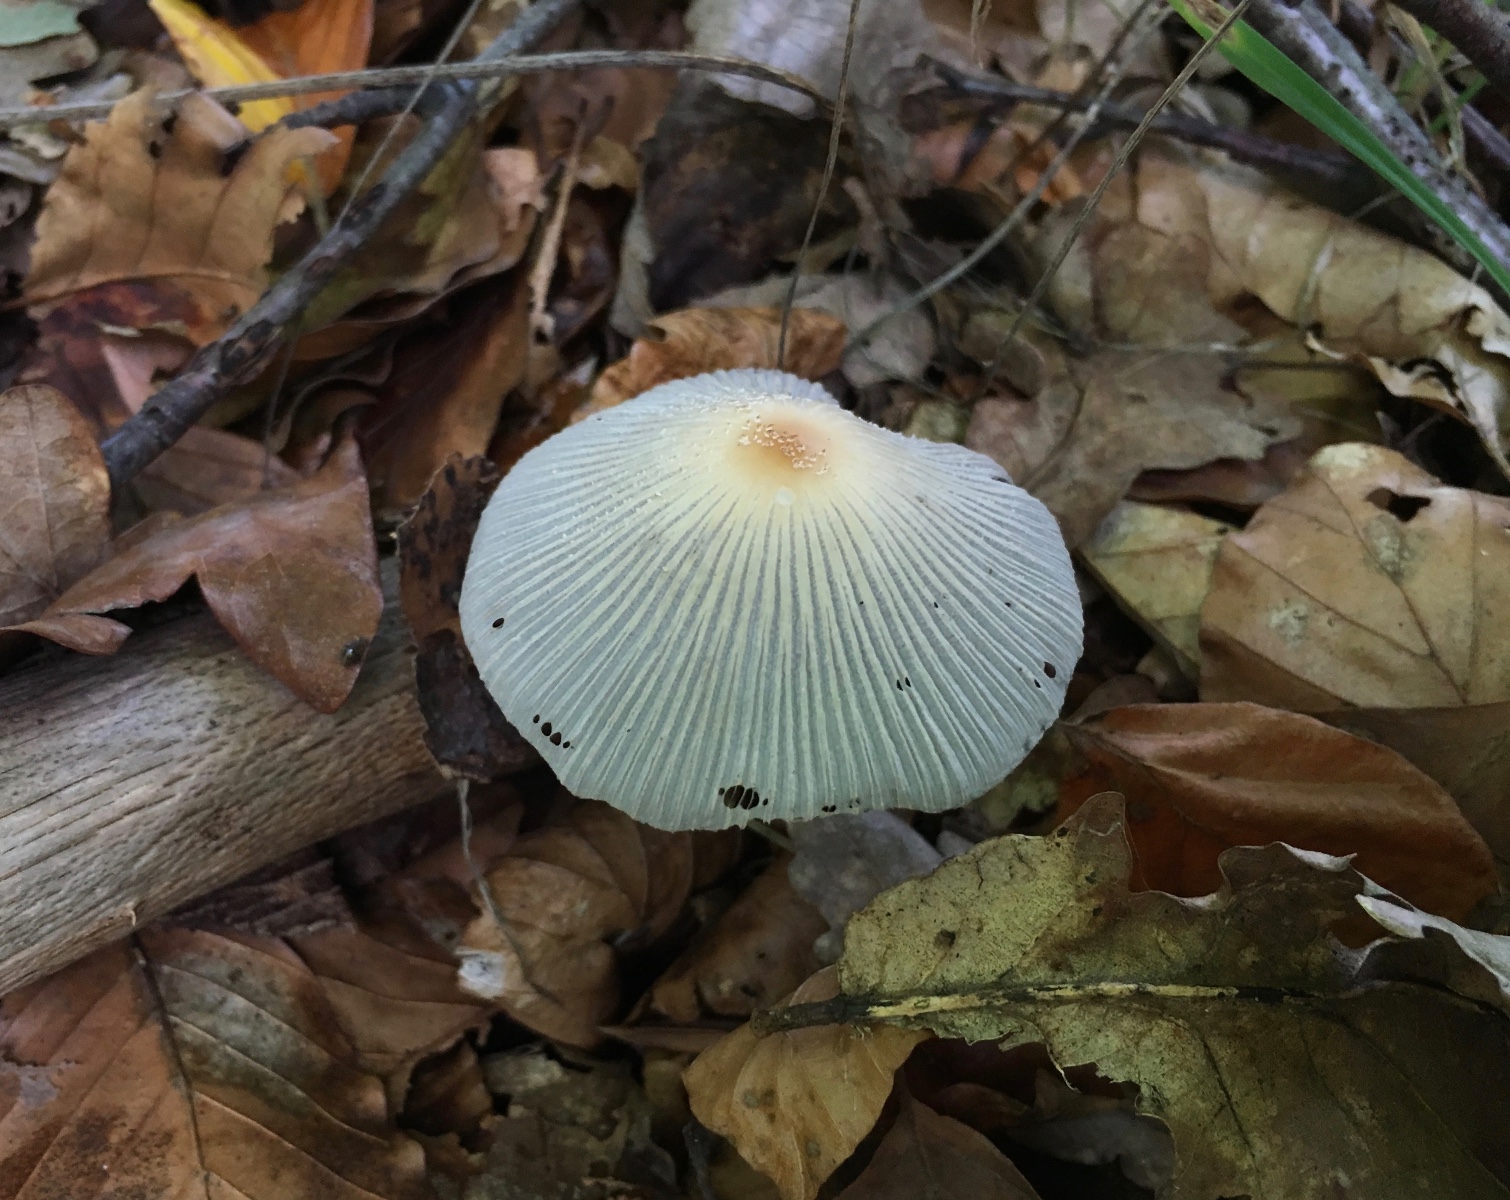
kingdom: Fungi
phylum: Basidiomycota
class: Agaricomycetes
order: Agaricales
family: Psathyrellaceae
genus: Coprinellus
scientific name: Coprinellus
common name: blækhat
